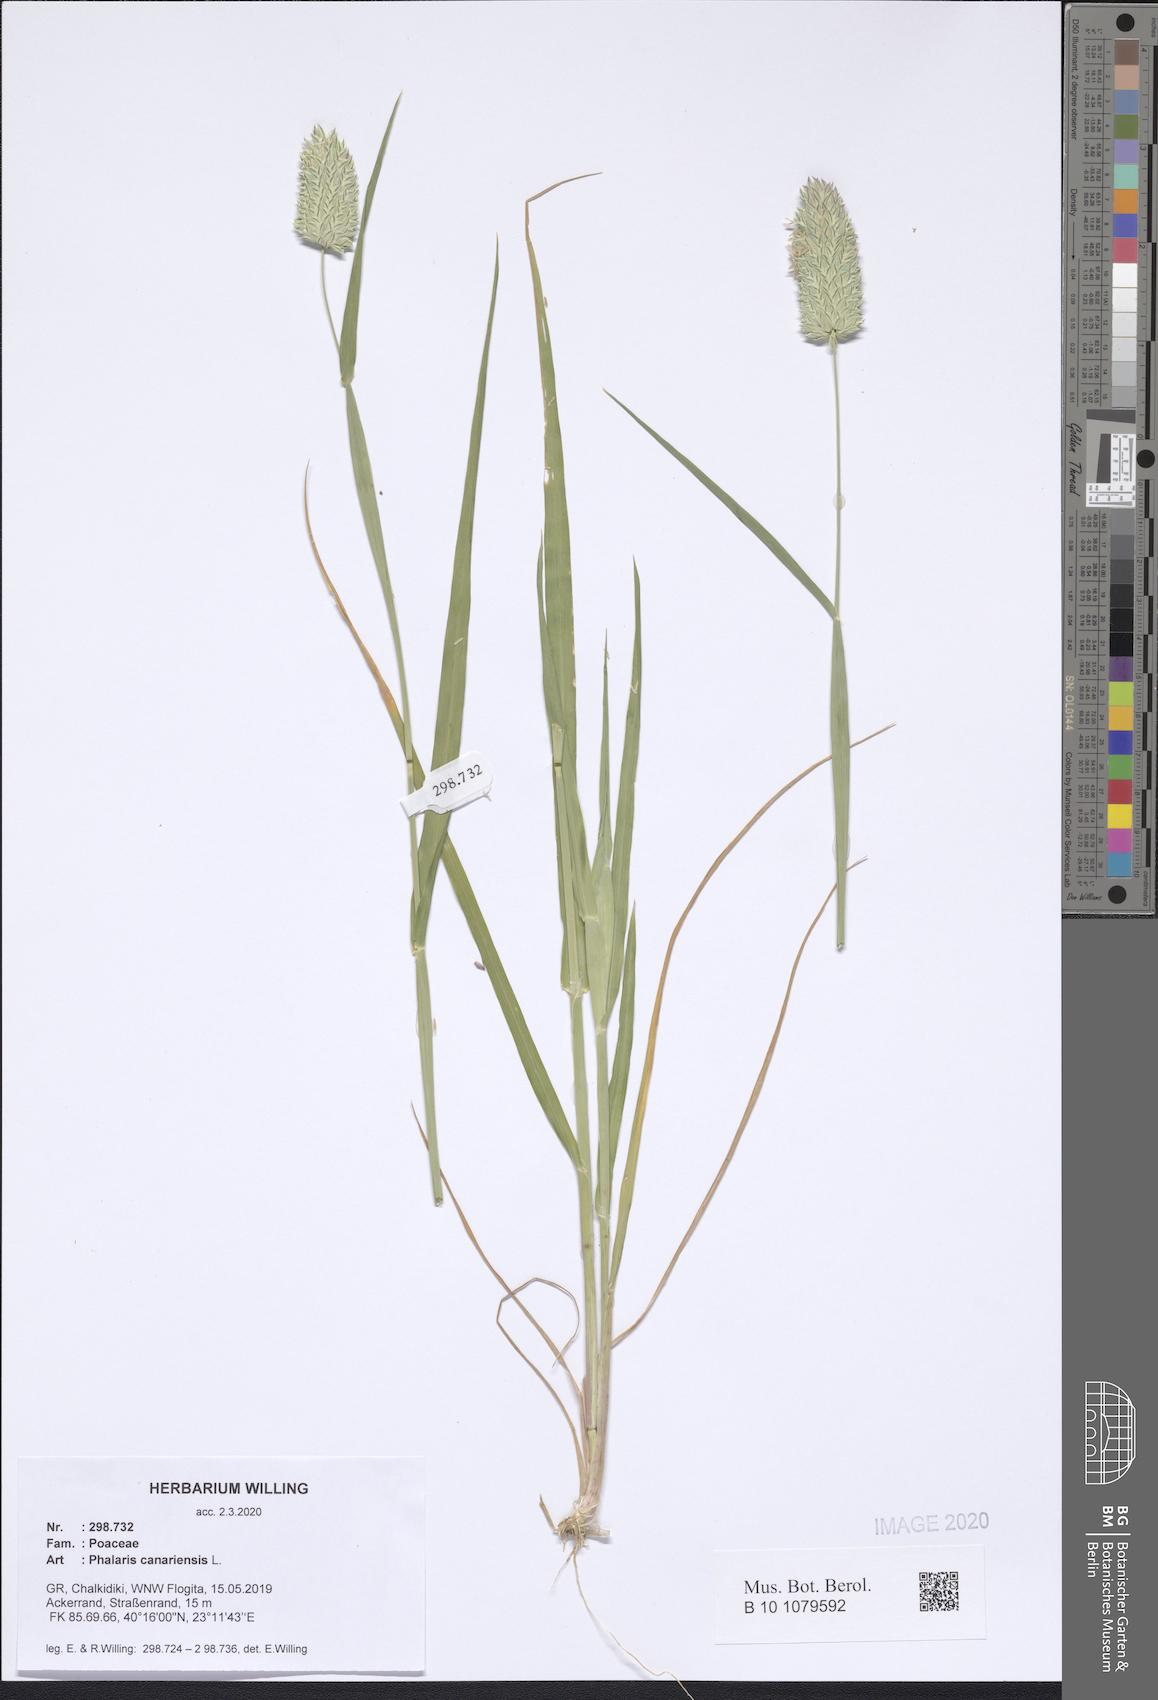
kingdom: Plantae
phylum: Tracheophyta
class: Liliopsida
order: Poales
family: Poaceae
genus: Phalaris
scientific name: Phalaris canariensis
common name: Annual canarygrass
